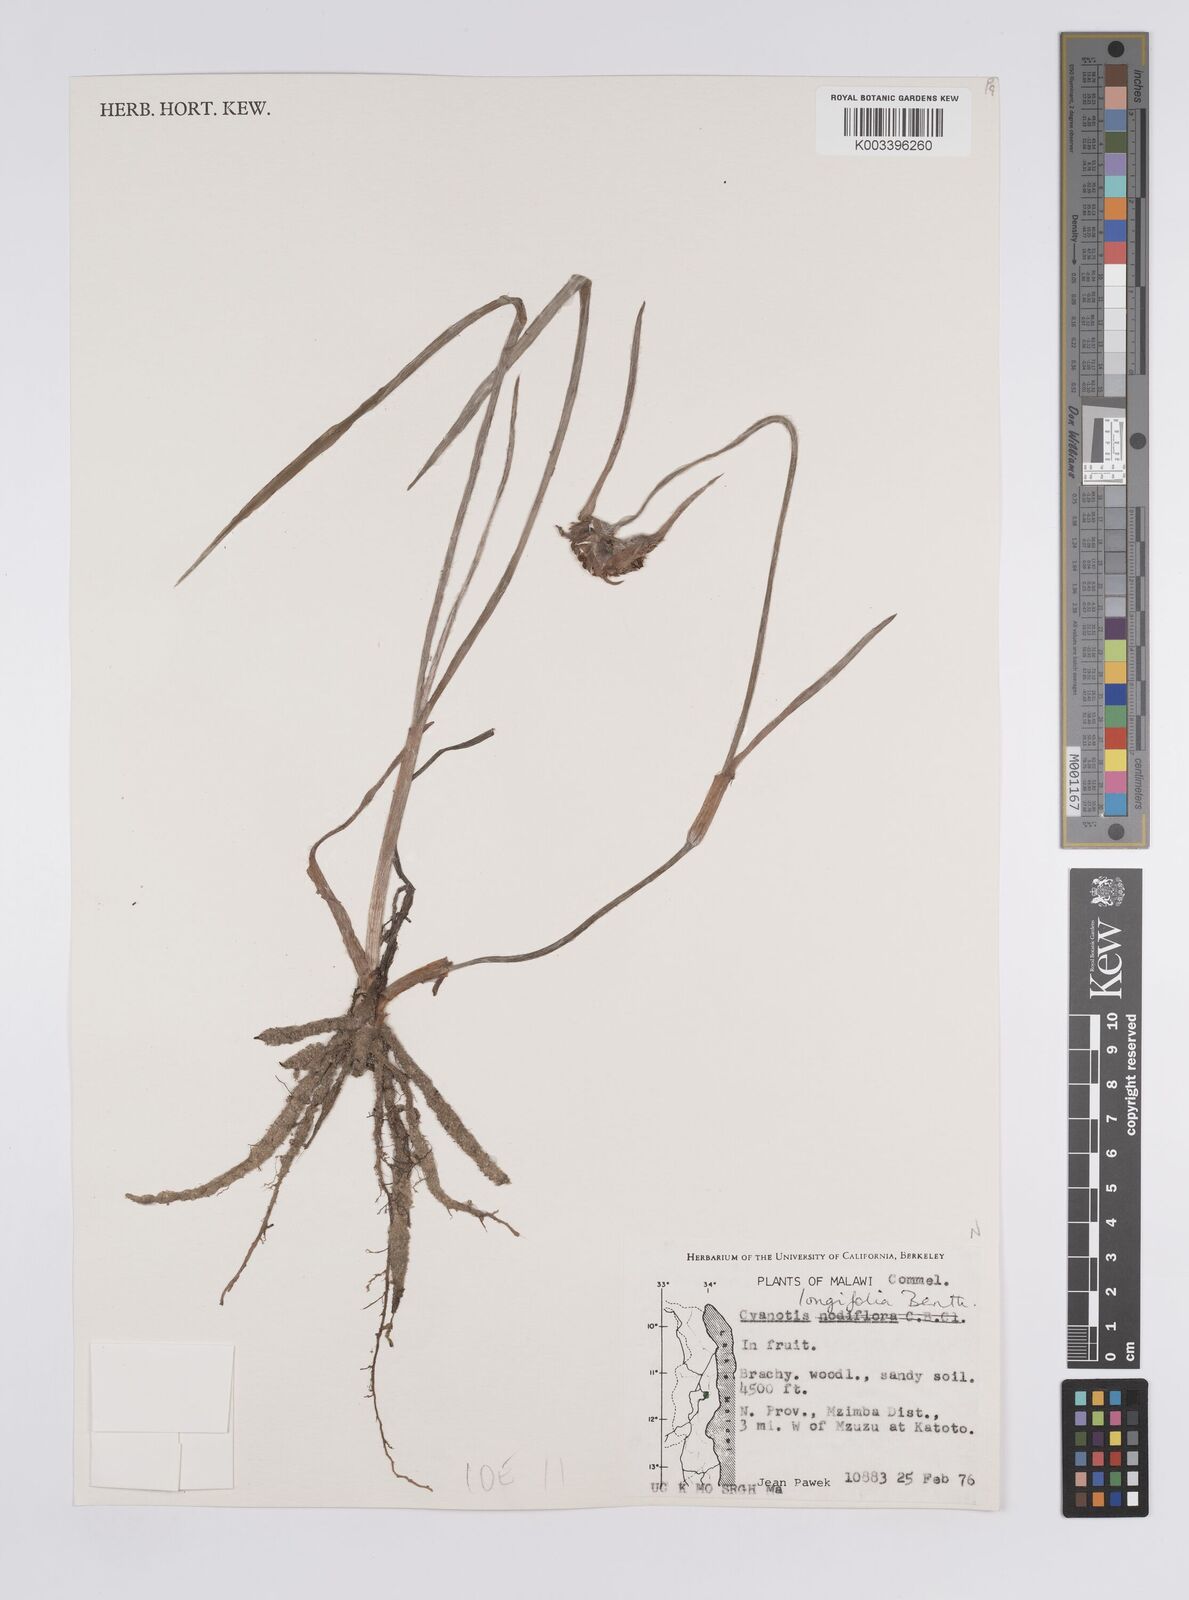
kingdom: Plantae
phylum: Tracheophyta
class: Liliopsida
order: Commelinales
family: Commelinaceae
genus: Cyanotis
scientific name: Cyanotis longifolia
